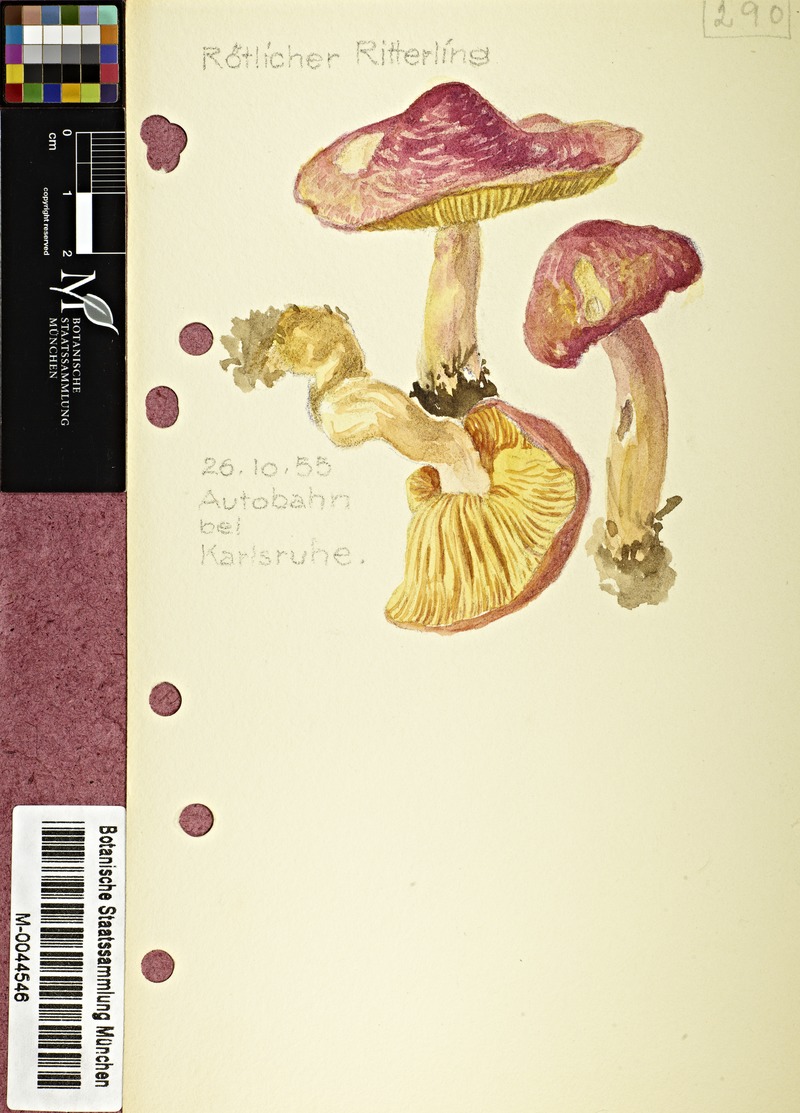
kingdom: Fungi
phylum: Basidiomycota
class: Agaricomycetes
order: Agaricales
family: Tricholomataceae
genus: Tricholomopsis
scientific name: Tricholomopsis rutilans
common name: Plums and custard
